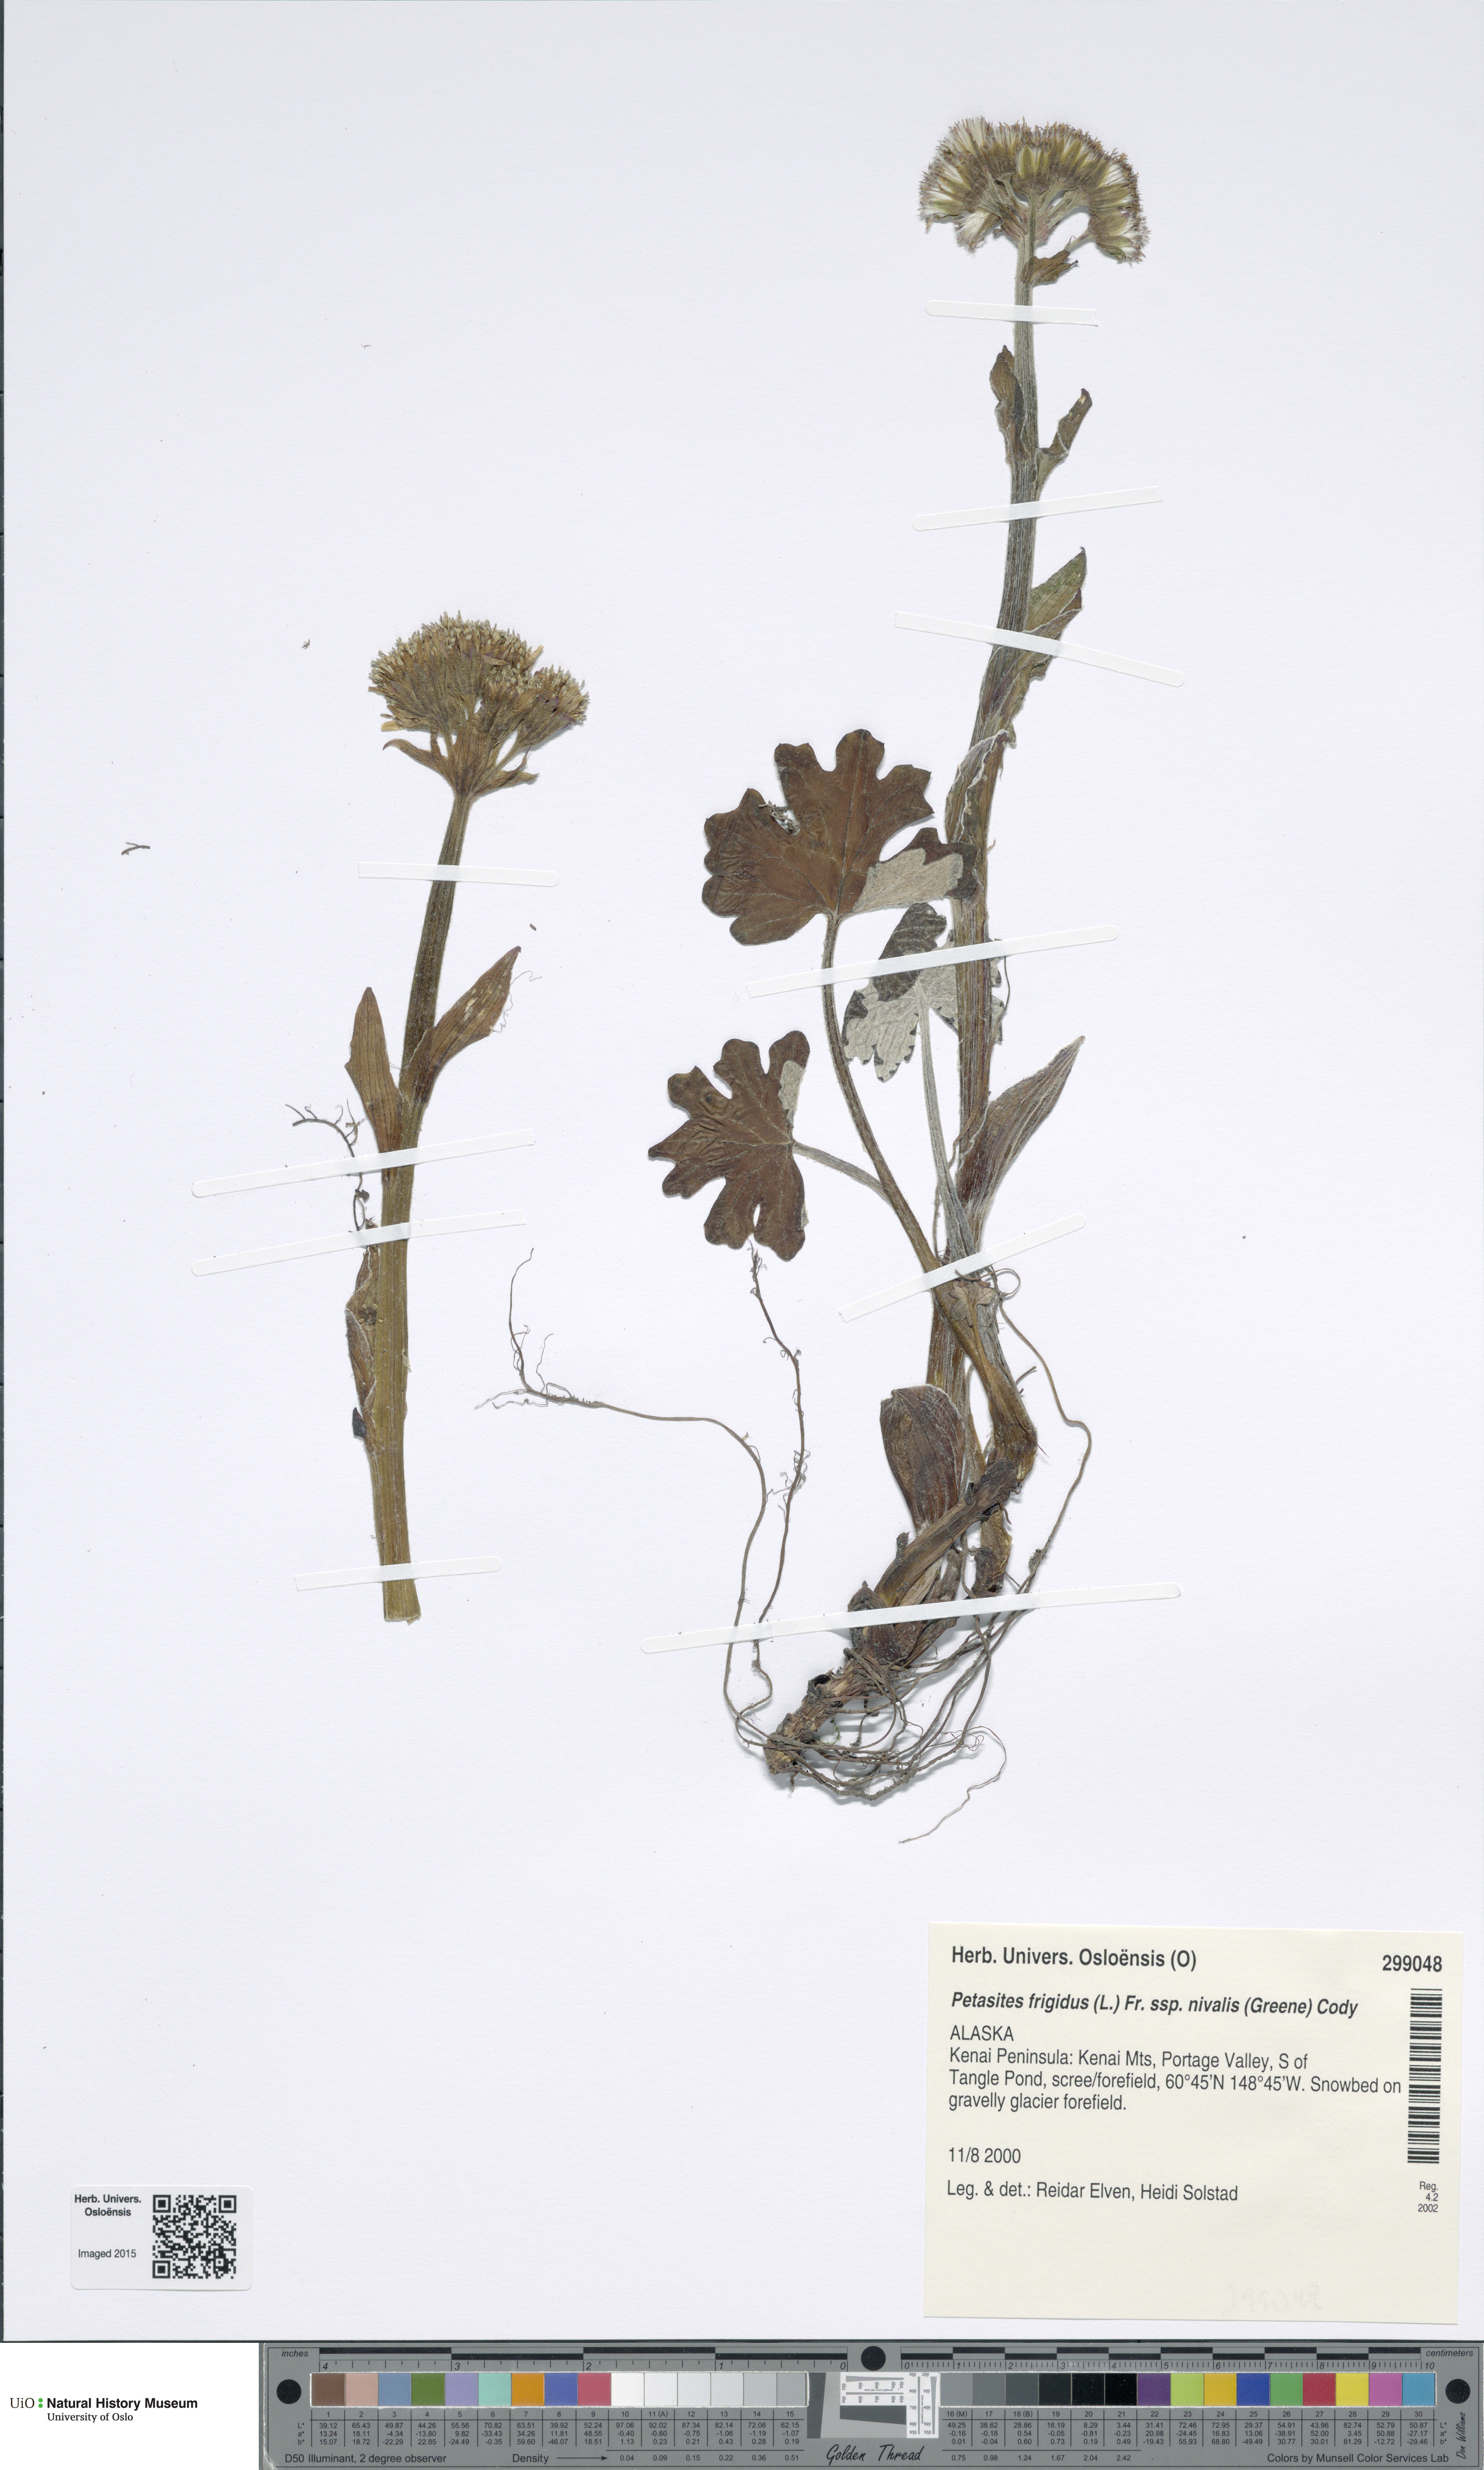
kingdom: Plantae
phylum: Tracheophyta
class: Magnoliopsida
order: Asterales
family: Asteraceae
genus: Petasites
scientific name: Petasites frigidus
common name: Arctic butterbur
